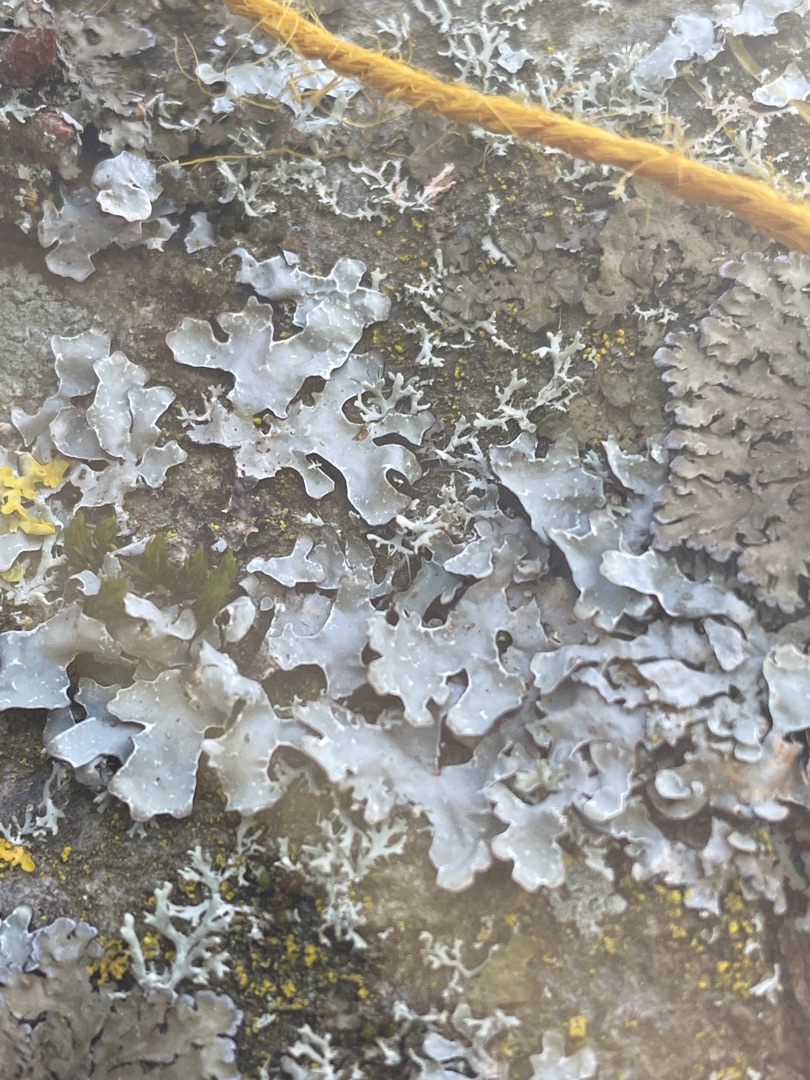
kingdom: Fungi
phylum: Ascomycota
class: Lecanoromycetes
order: Lecanorales
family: Parmeliaceae
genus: Parmelia
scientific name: Parmelia sulcata
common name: Rynket skållav
